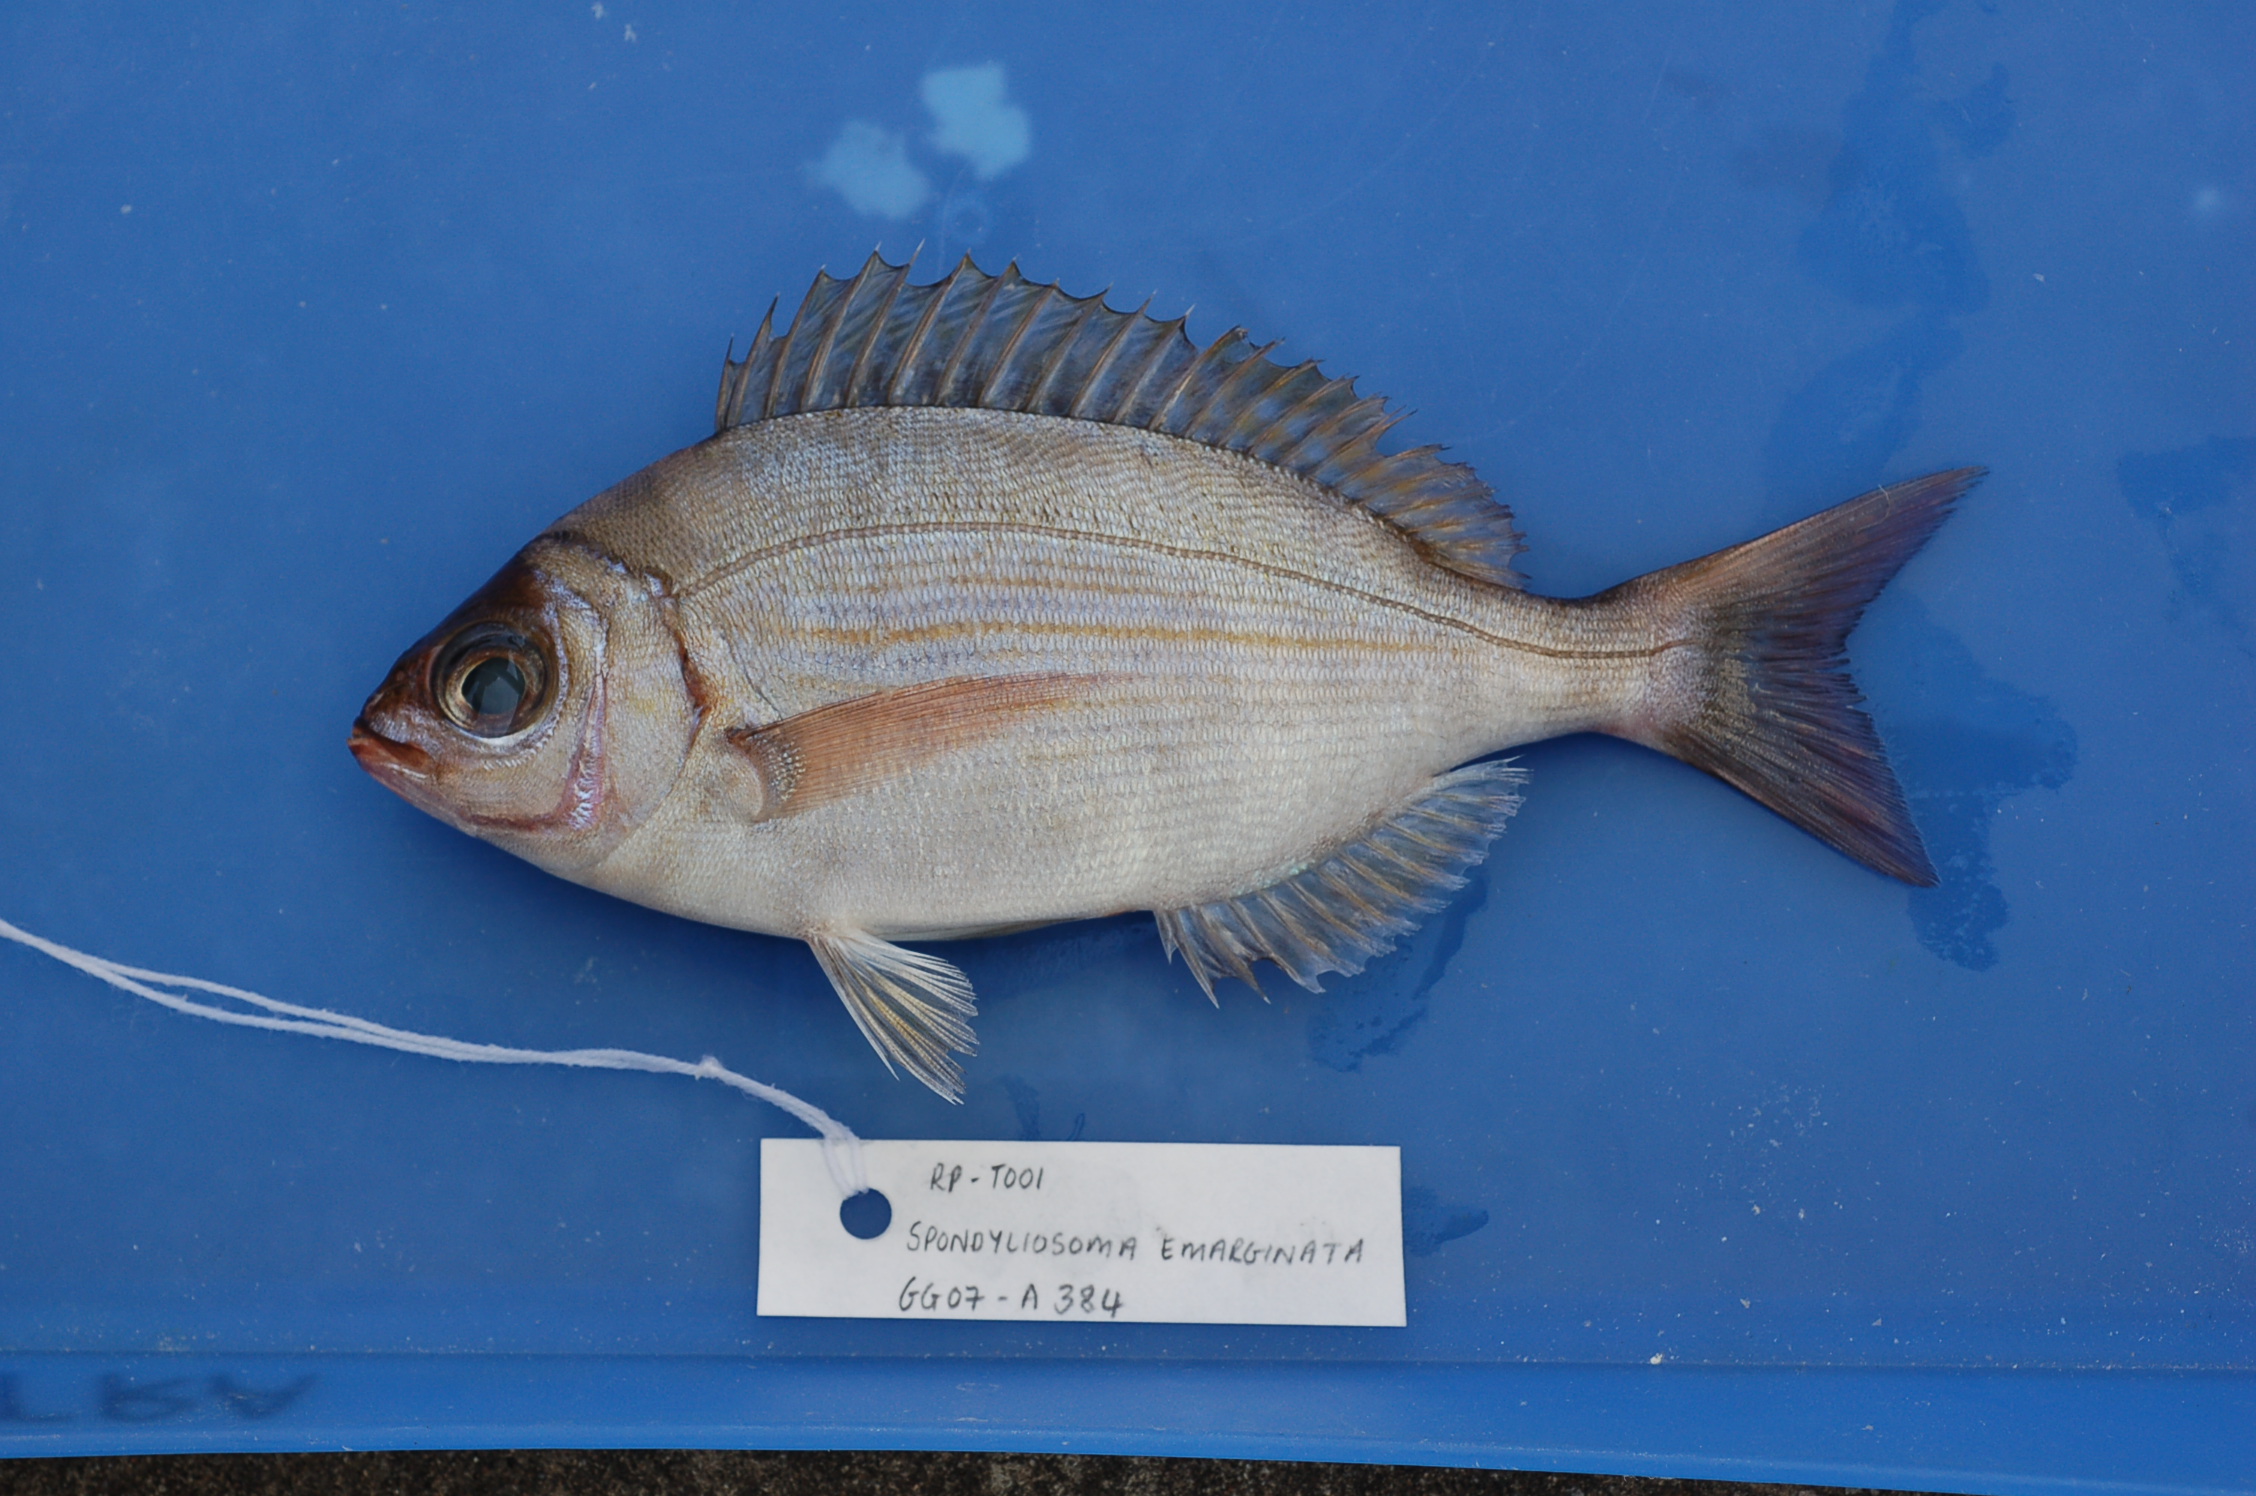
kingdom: Animalia
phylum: Chordata
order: Perciformes
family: Sparidae
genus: Spondyliosoma
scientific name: Spondyliosoma emarginatum
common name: Steentje seabream
